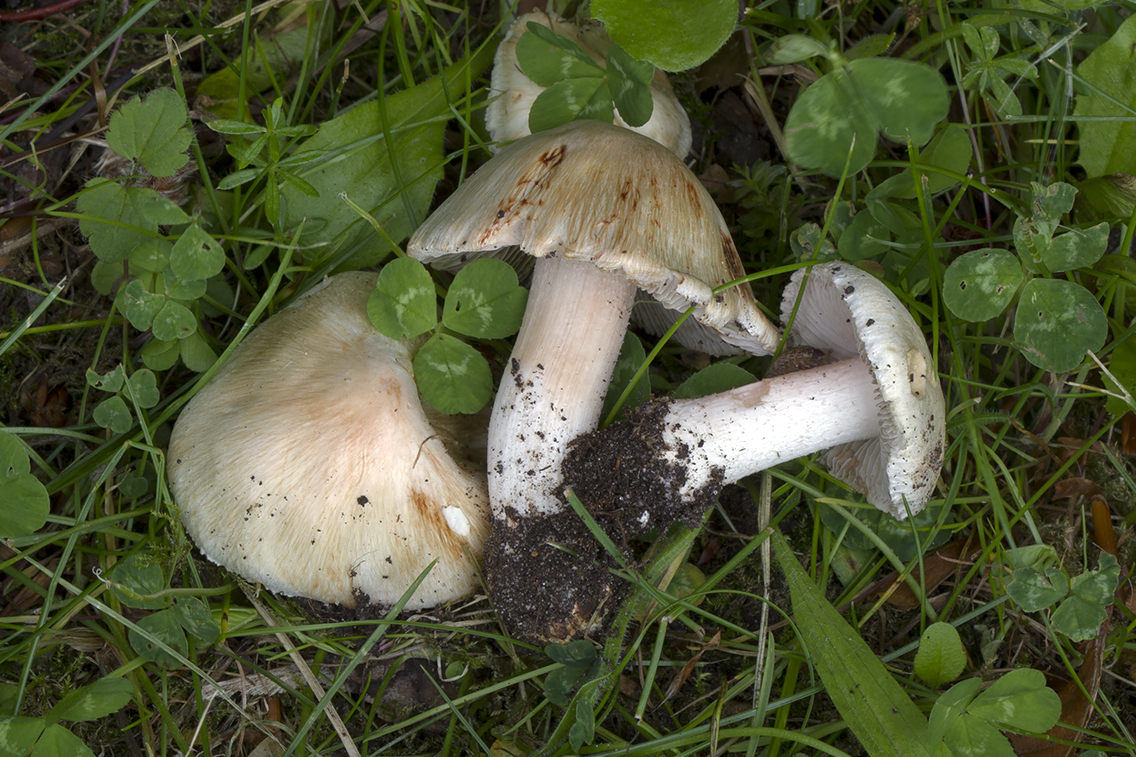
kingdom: Fungi
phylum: Basidiomycota
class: Agaricomycetes
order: Agaricales
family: Inocybaceae
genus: Inosperma
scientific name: Inosperma erubescens
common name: giftig trævlhat
